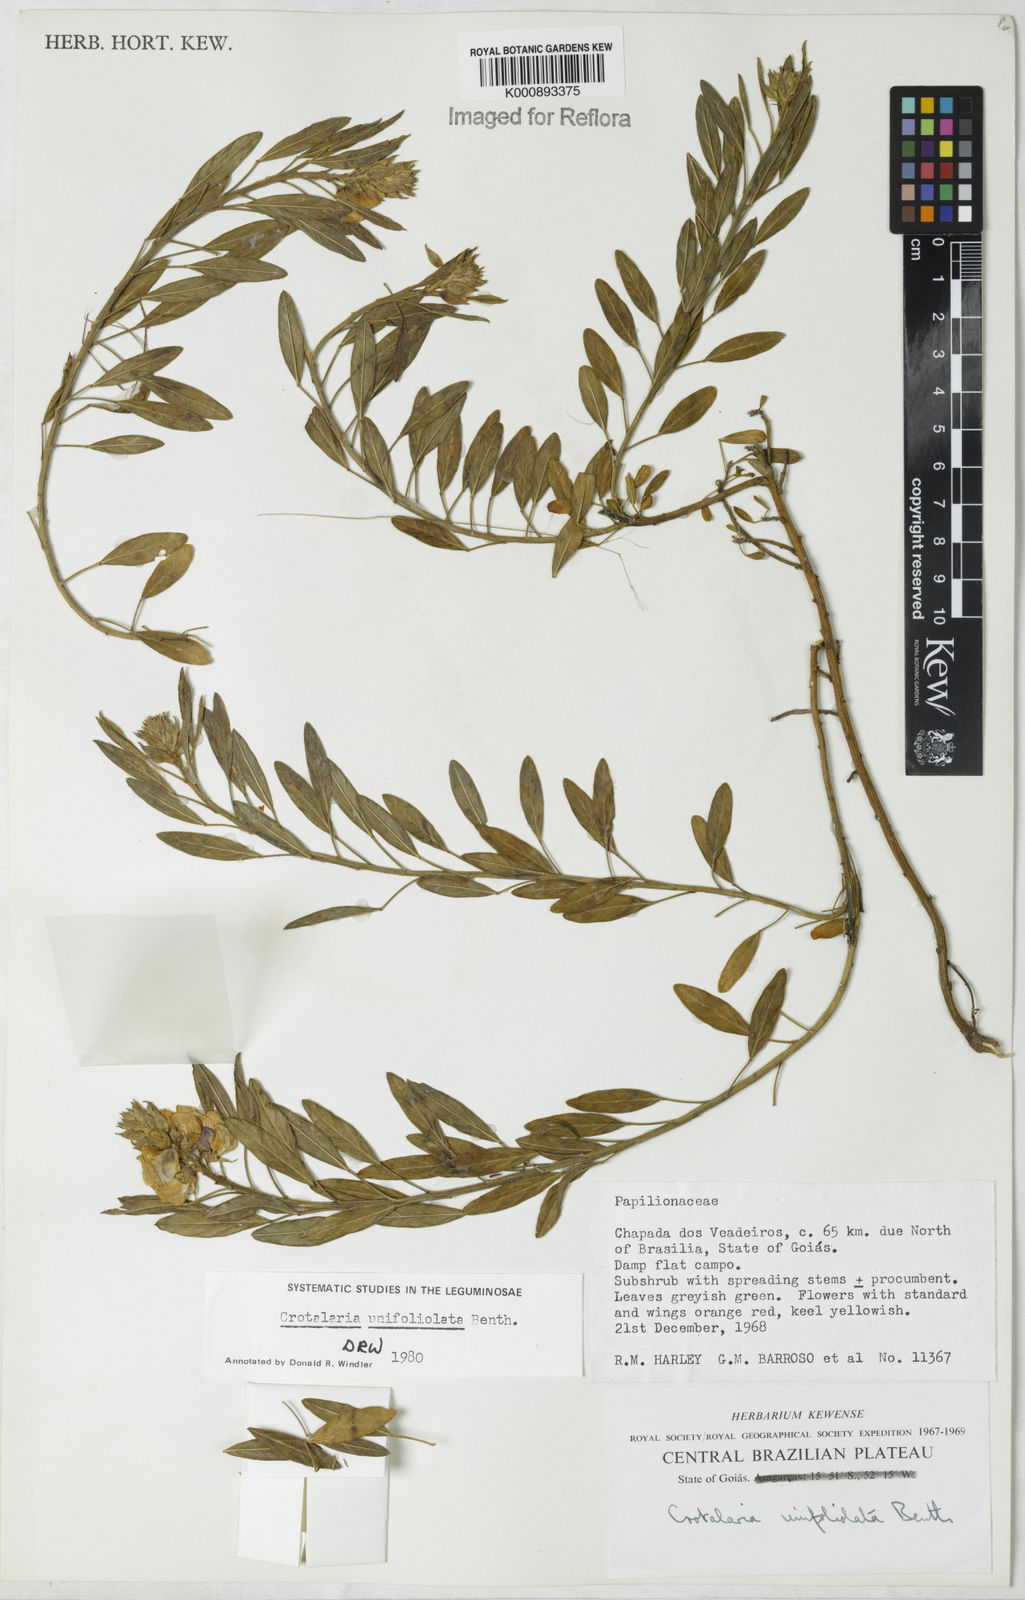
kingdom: Plantae
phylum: Tracheophyta
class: Magnoliopsida
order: Fabales
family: Fabaceae
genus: Crotalaria
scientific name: Crotalaria unifoliolata
